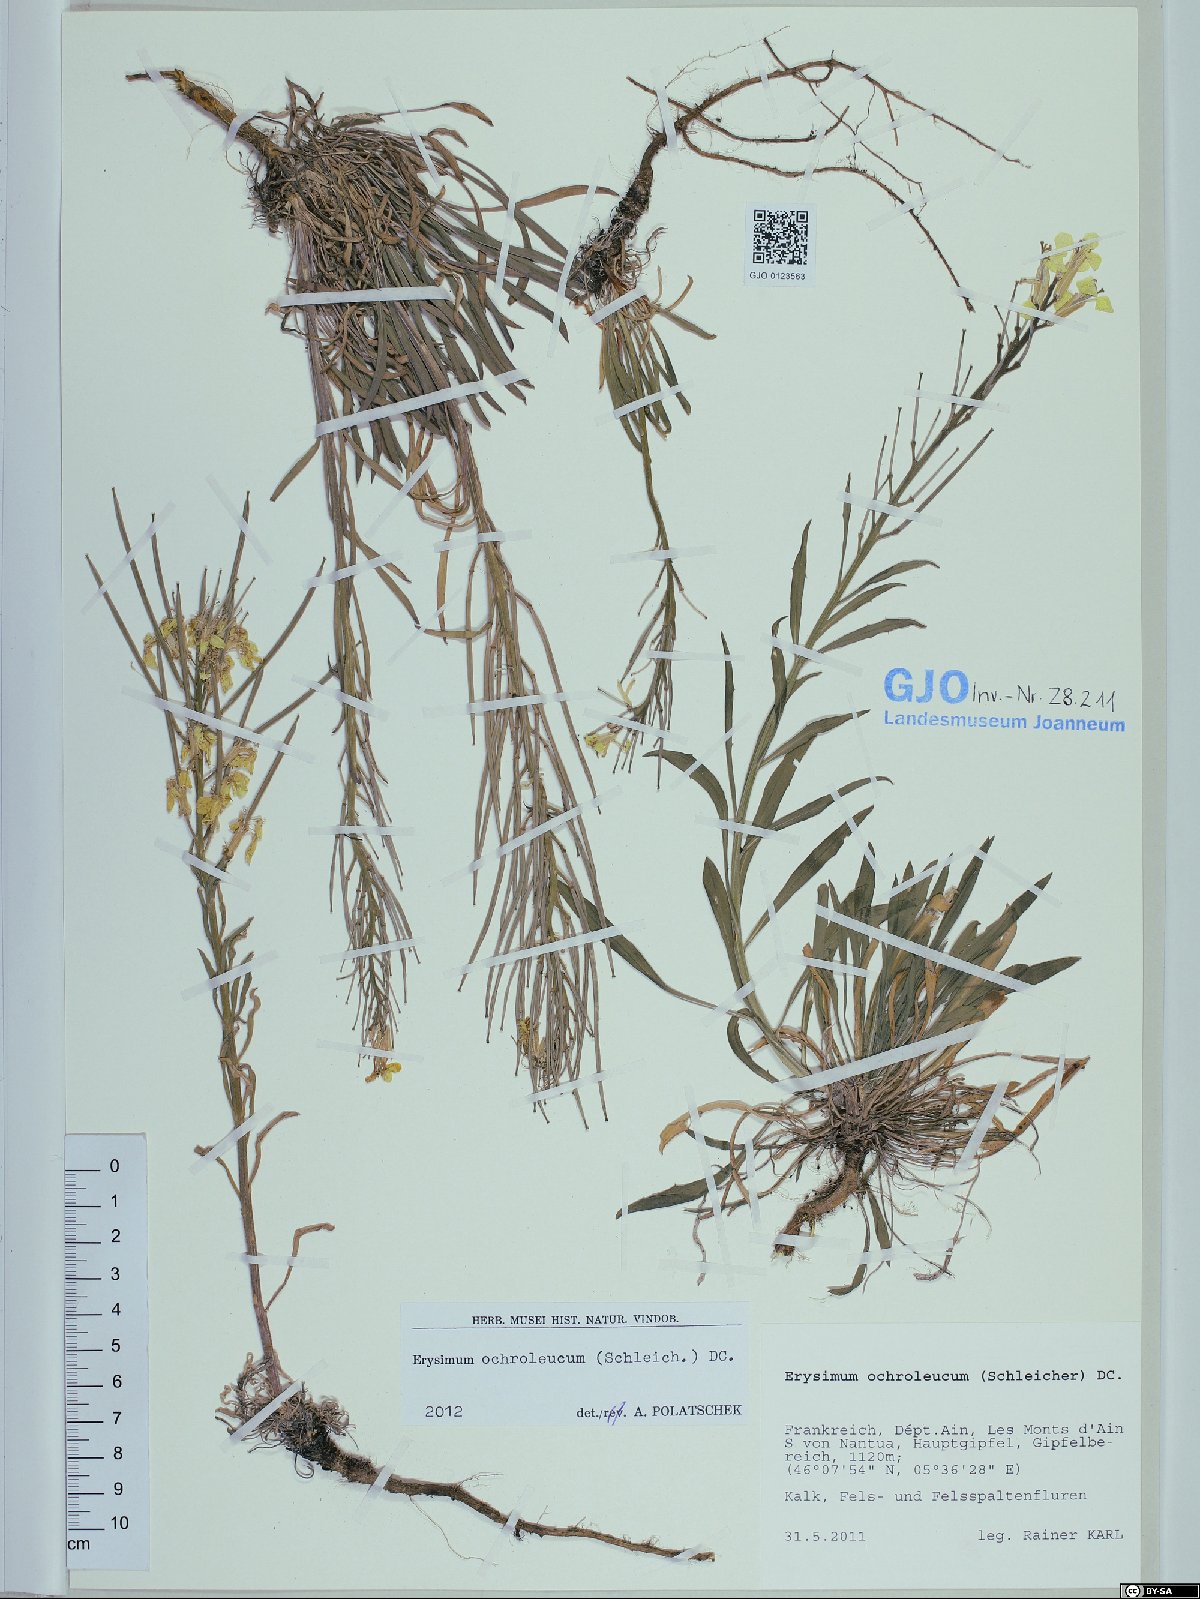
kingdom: Plantae
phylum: Tracheophyta
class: Magnoliopsida
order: Brassicales
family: Brassicaceae
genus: Erysimum
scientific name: Erysimum humile
